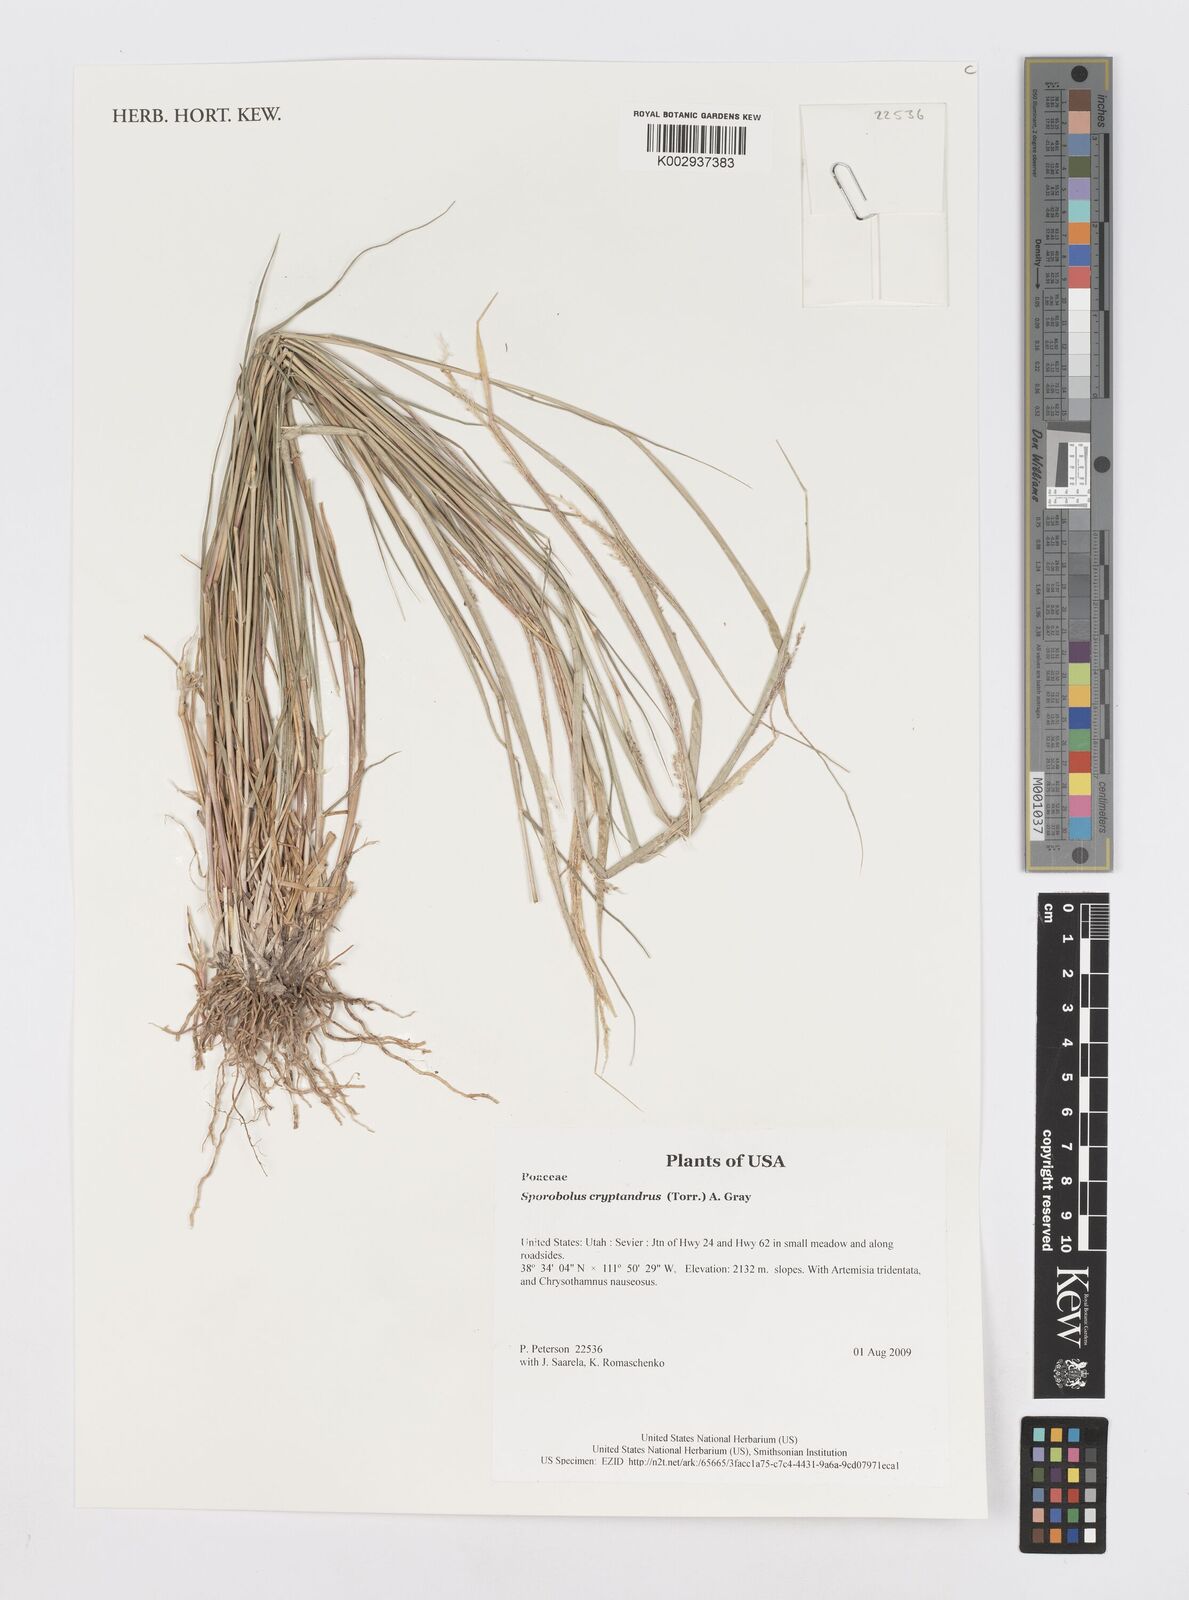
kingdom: Plantae
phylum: Tracheophyta
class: Liliopsida
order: Poales
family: Poaceae
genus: Sporobolus
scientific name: Sporobolus cryptandrus
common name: Sand dropseed
